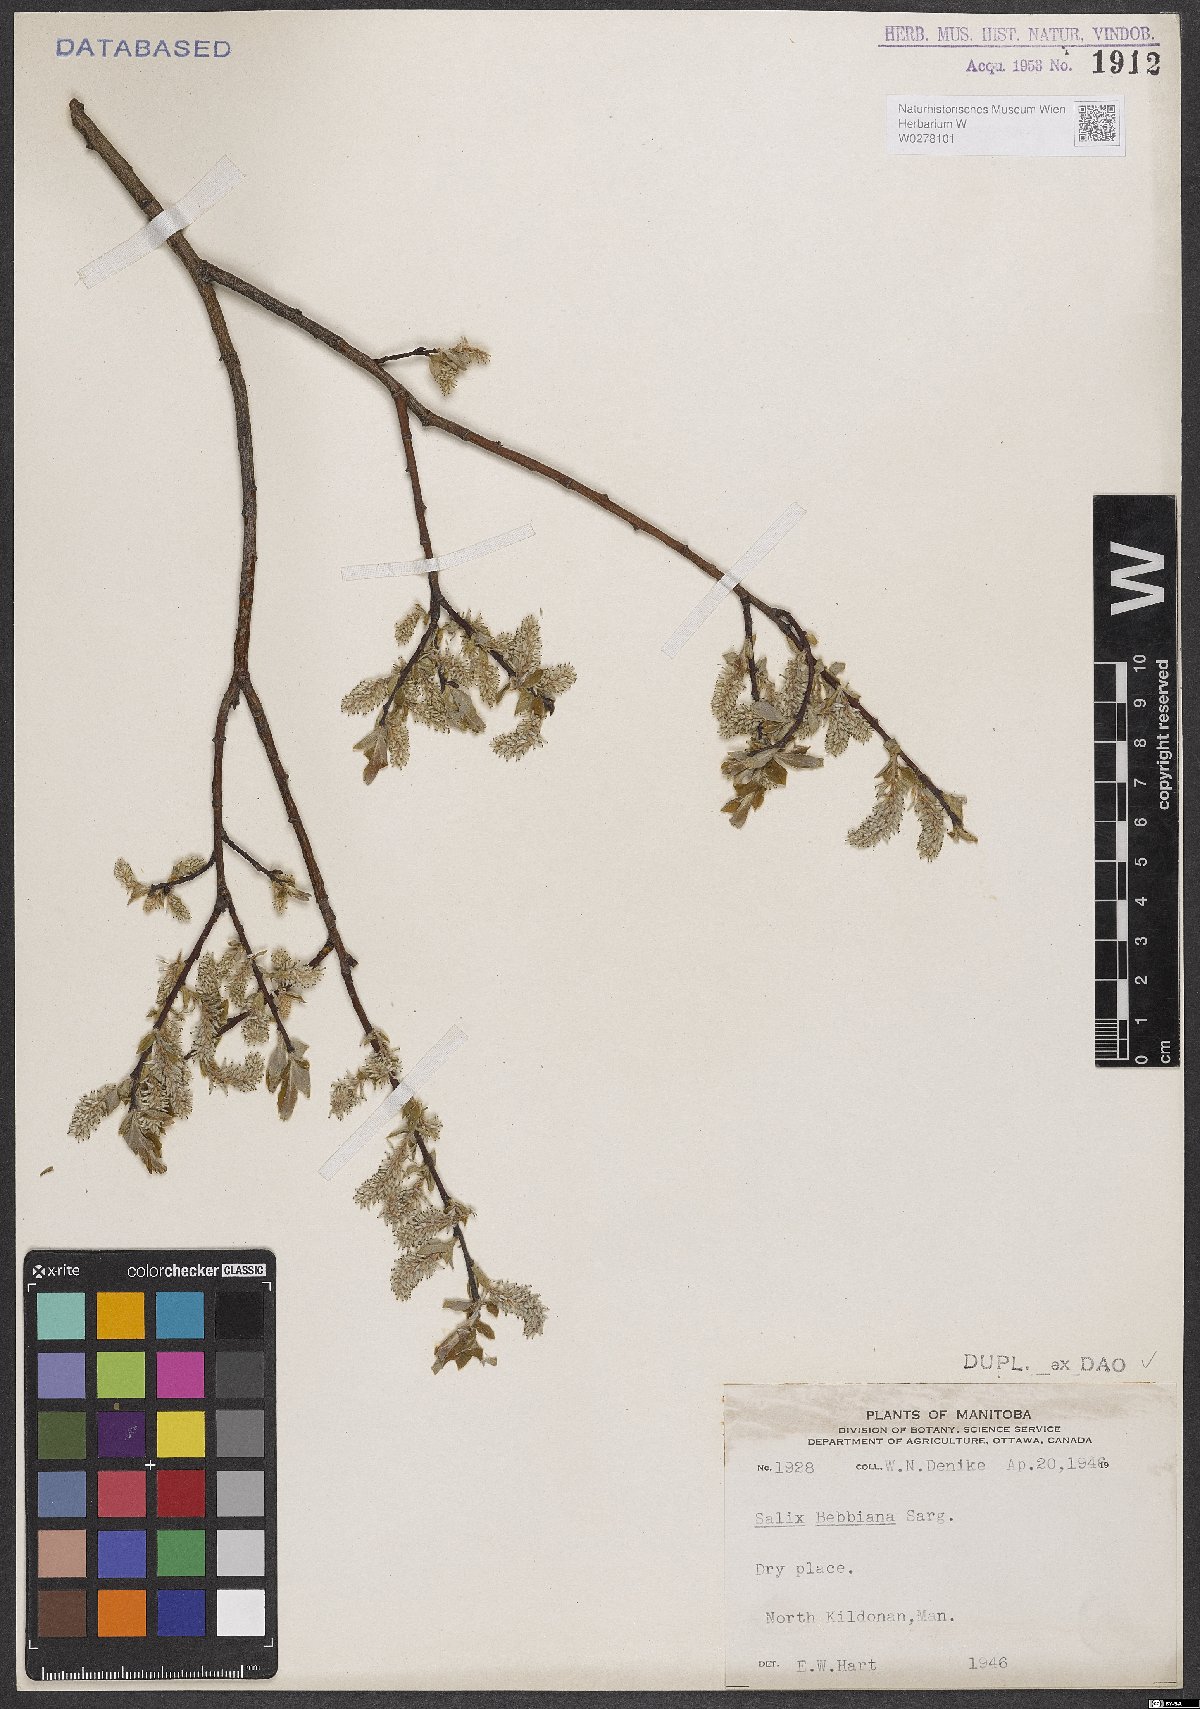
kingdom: Plantae
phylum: Tracheophyta
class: Magnoliopsida
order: Malpighiales
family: Salicaceae
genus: Salix
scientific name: Salix bebbiana
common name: Bebb's willow
